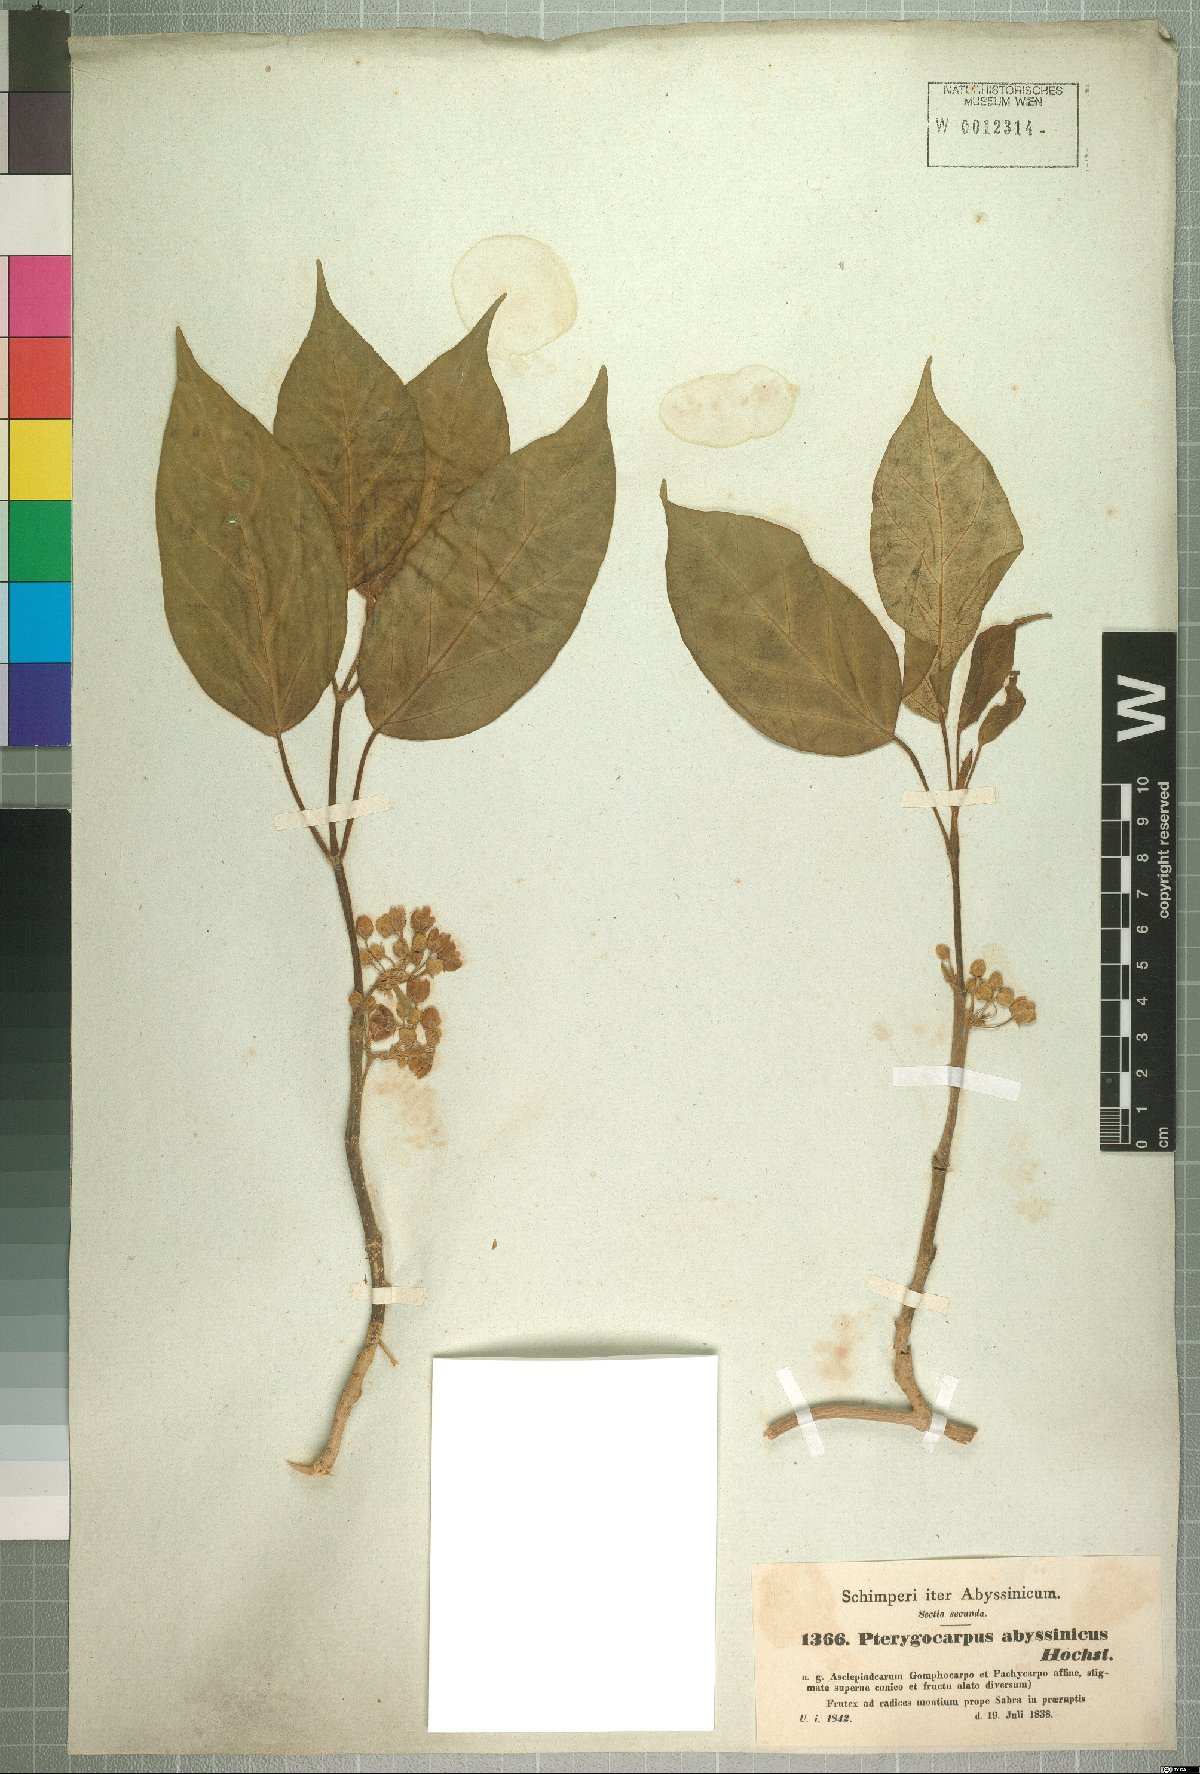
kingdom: Plantae
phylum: Tracheophyta
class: Magnoliopsida
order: Gentianales
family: Apocynaceae
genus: Stephanotis
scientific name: Stephanotis abyssinica
